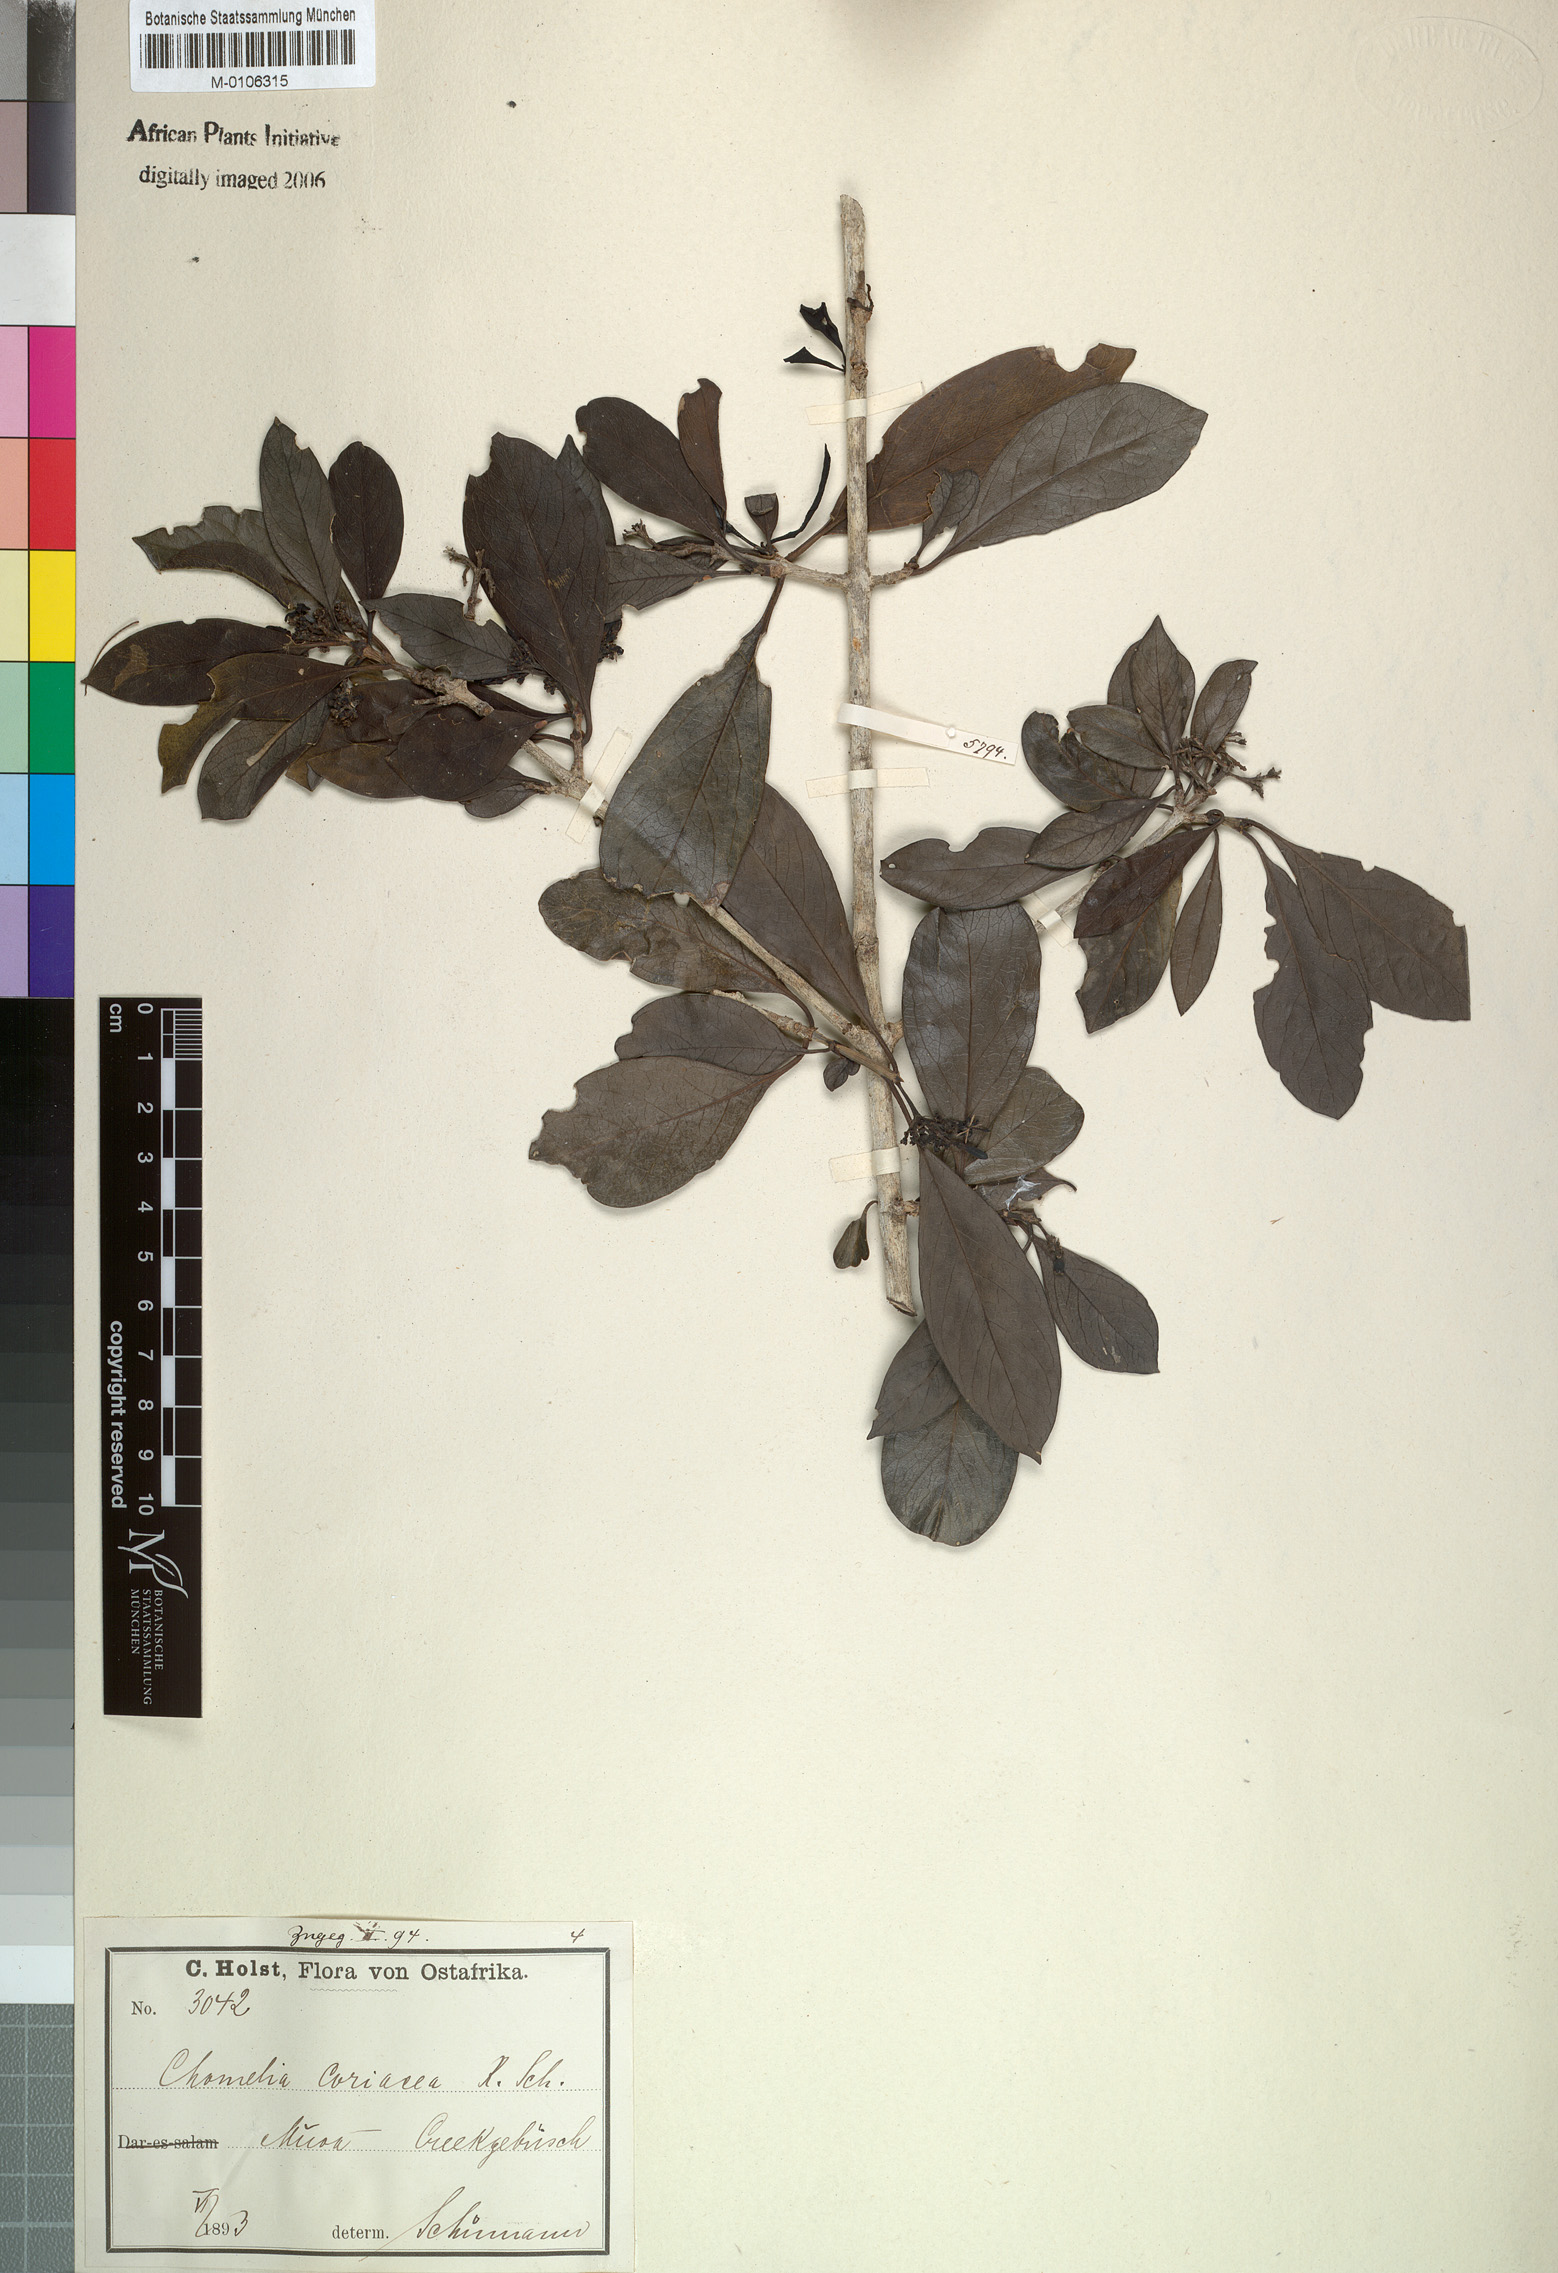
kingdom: Plantae
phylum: Tracheophyta
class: Magnoliopsida
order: Gentianales
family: Rubiaceae
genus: Coptosperma
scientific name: Coptosperma nigrescens
